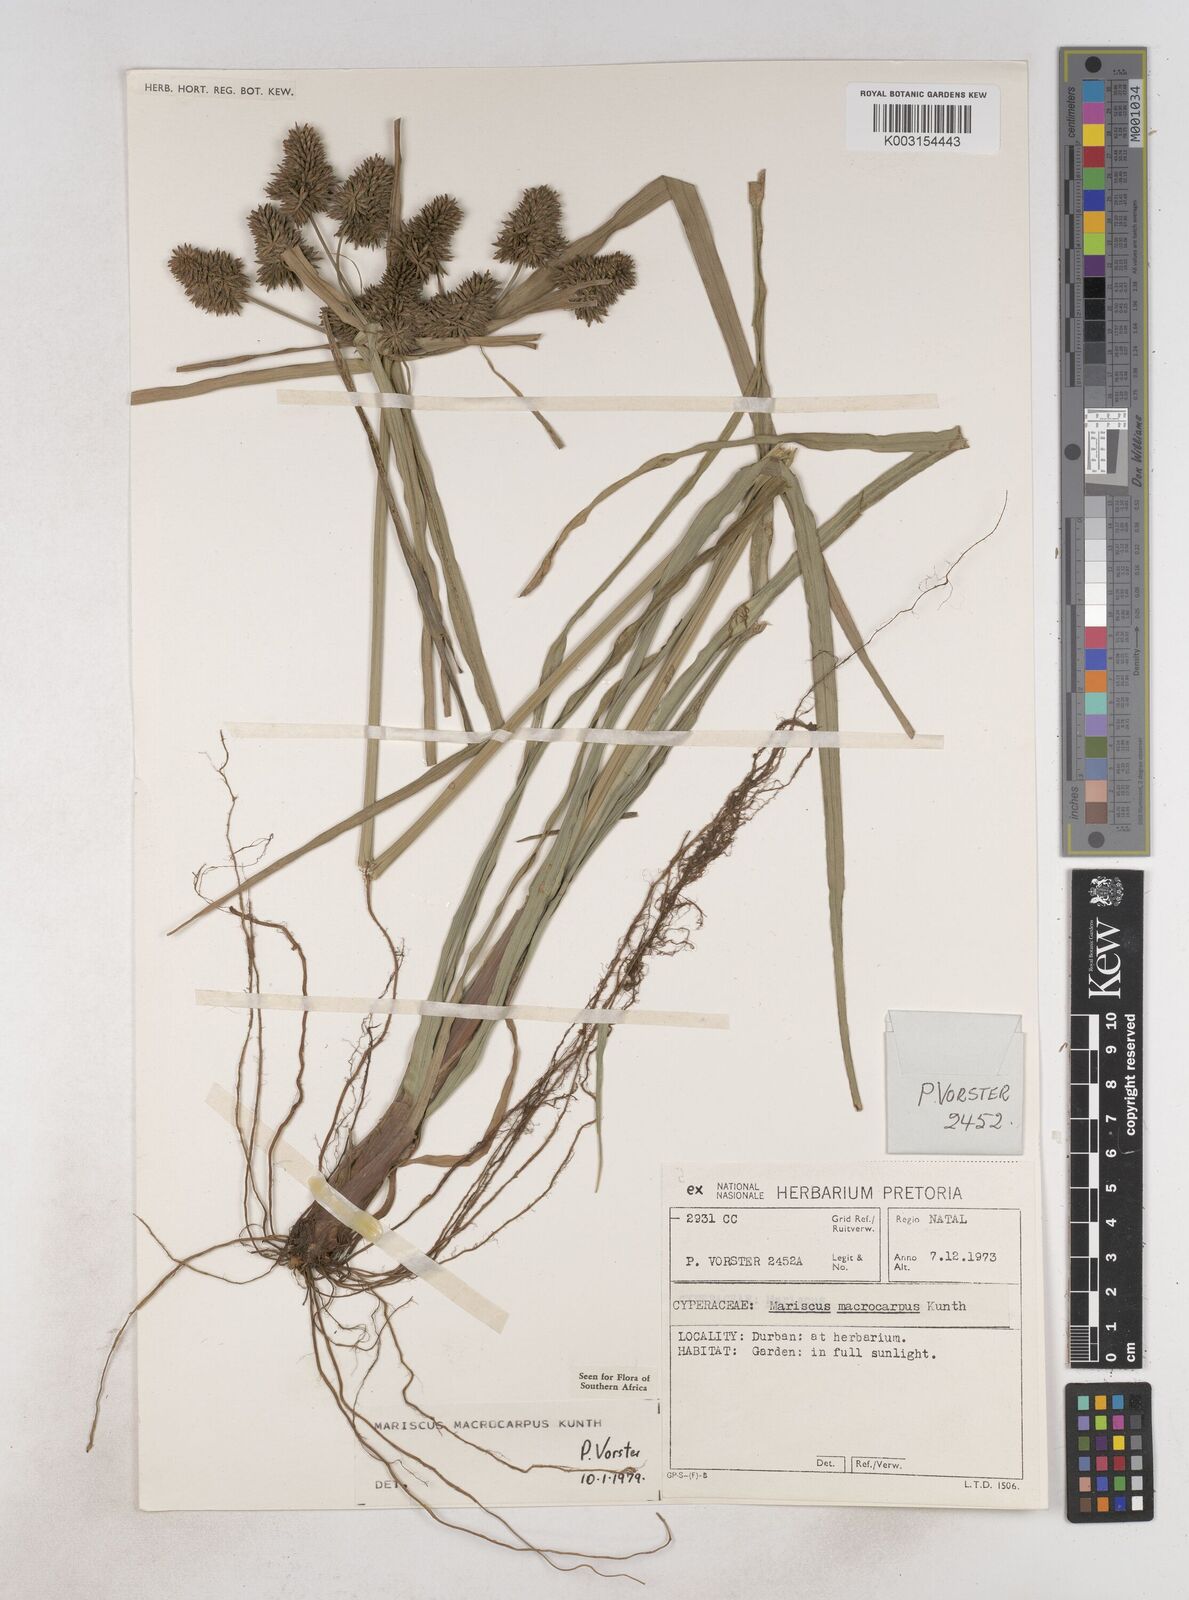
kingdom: Plantae
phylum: Tracheophyta
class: Liliopsida
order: Poales
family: Cyperaceae
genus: Cyperus
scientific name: Cyperus macrocarpus
